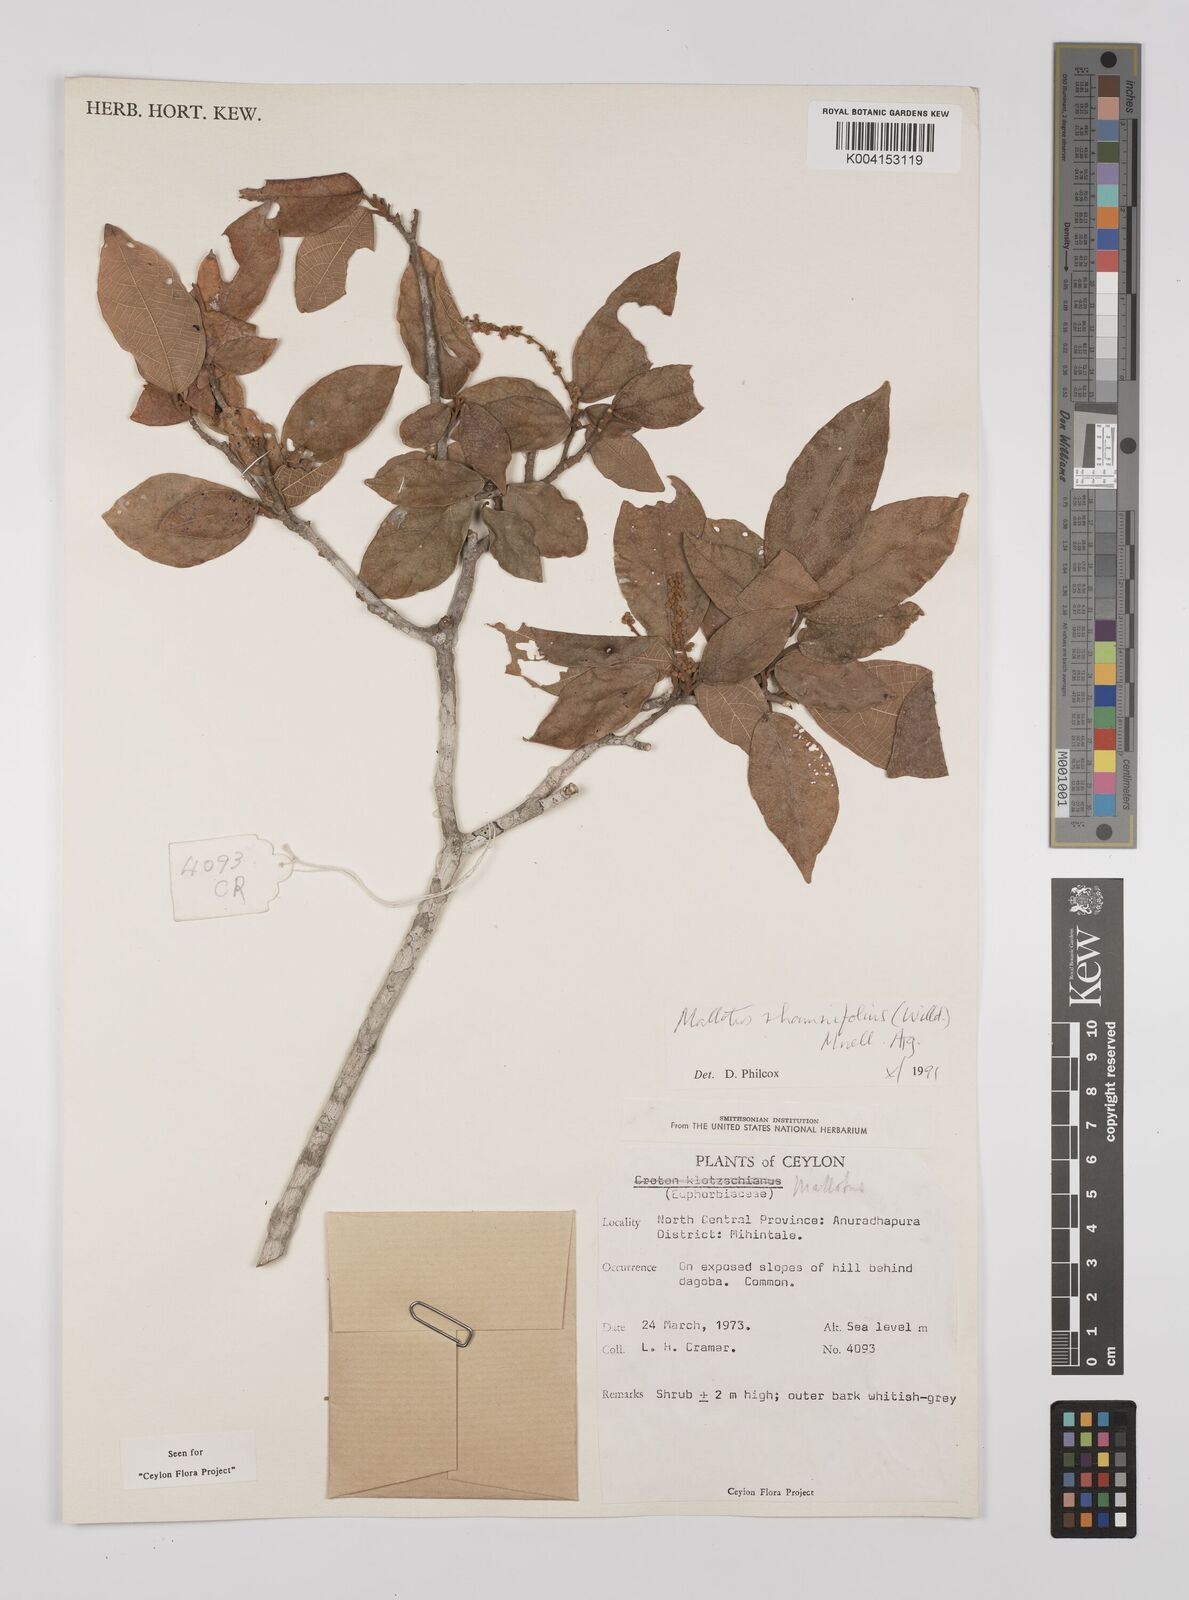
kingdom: Plantae
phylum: Tracheophyta
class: Magnoliopsida
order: Malpighiales
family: Euphorbiaceae
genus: Mallotus
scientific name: Mallotus rhamnifolius
